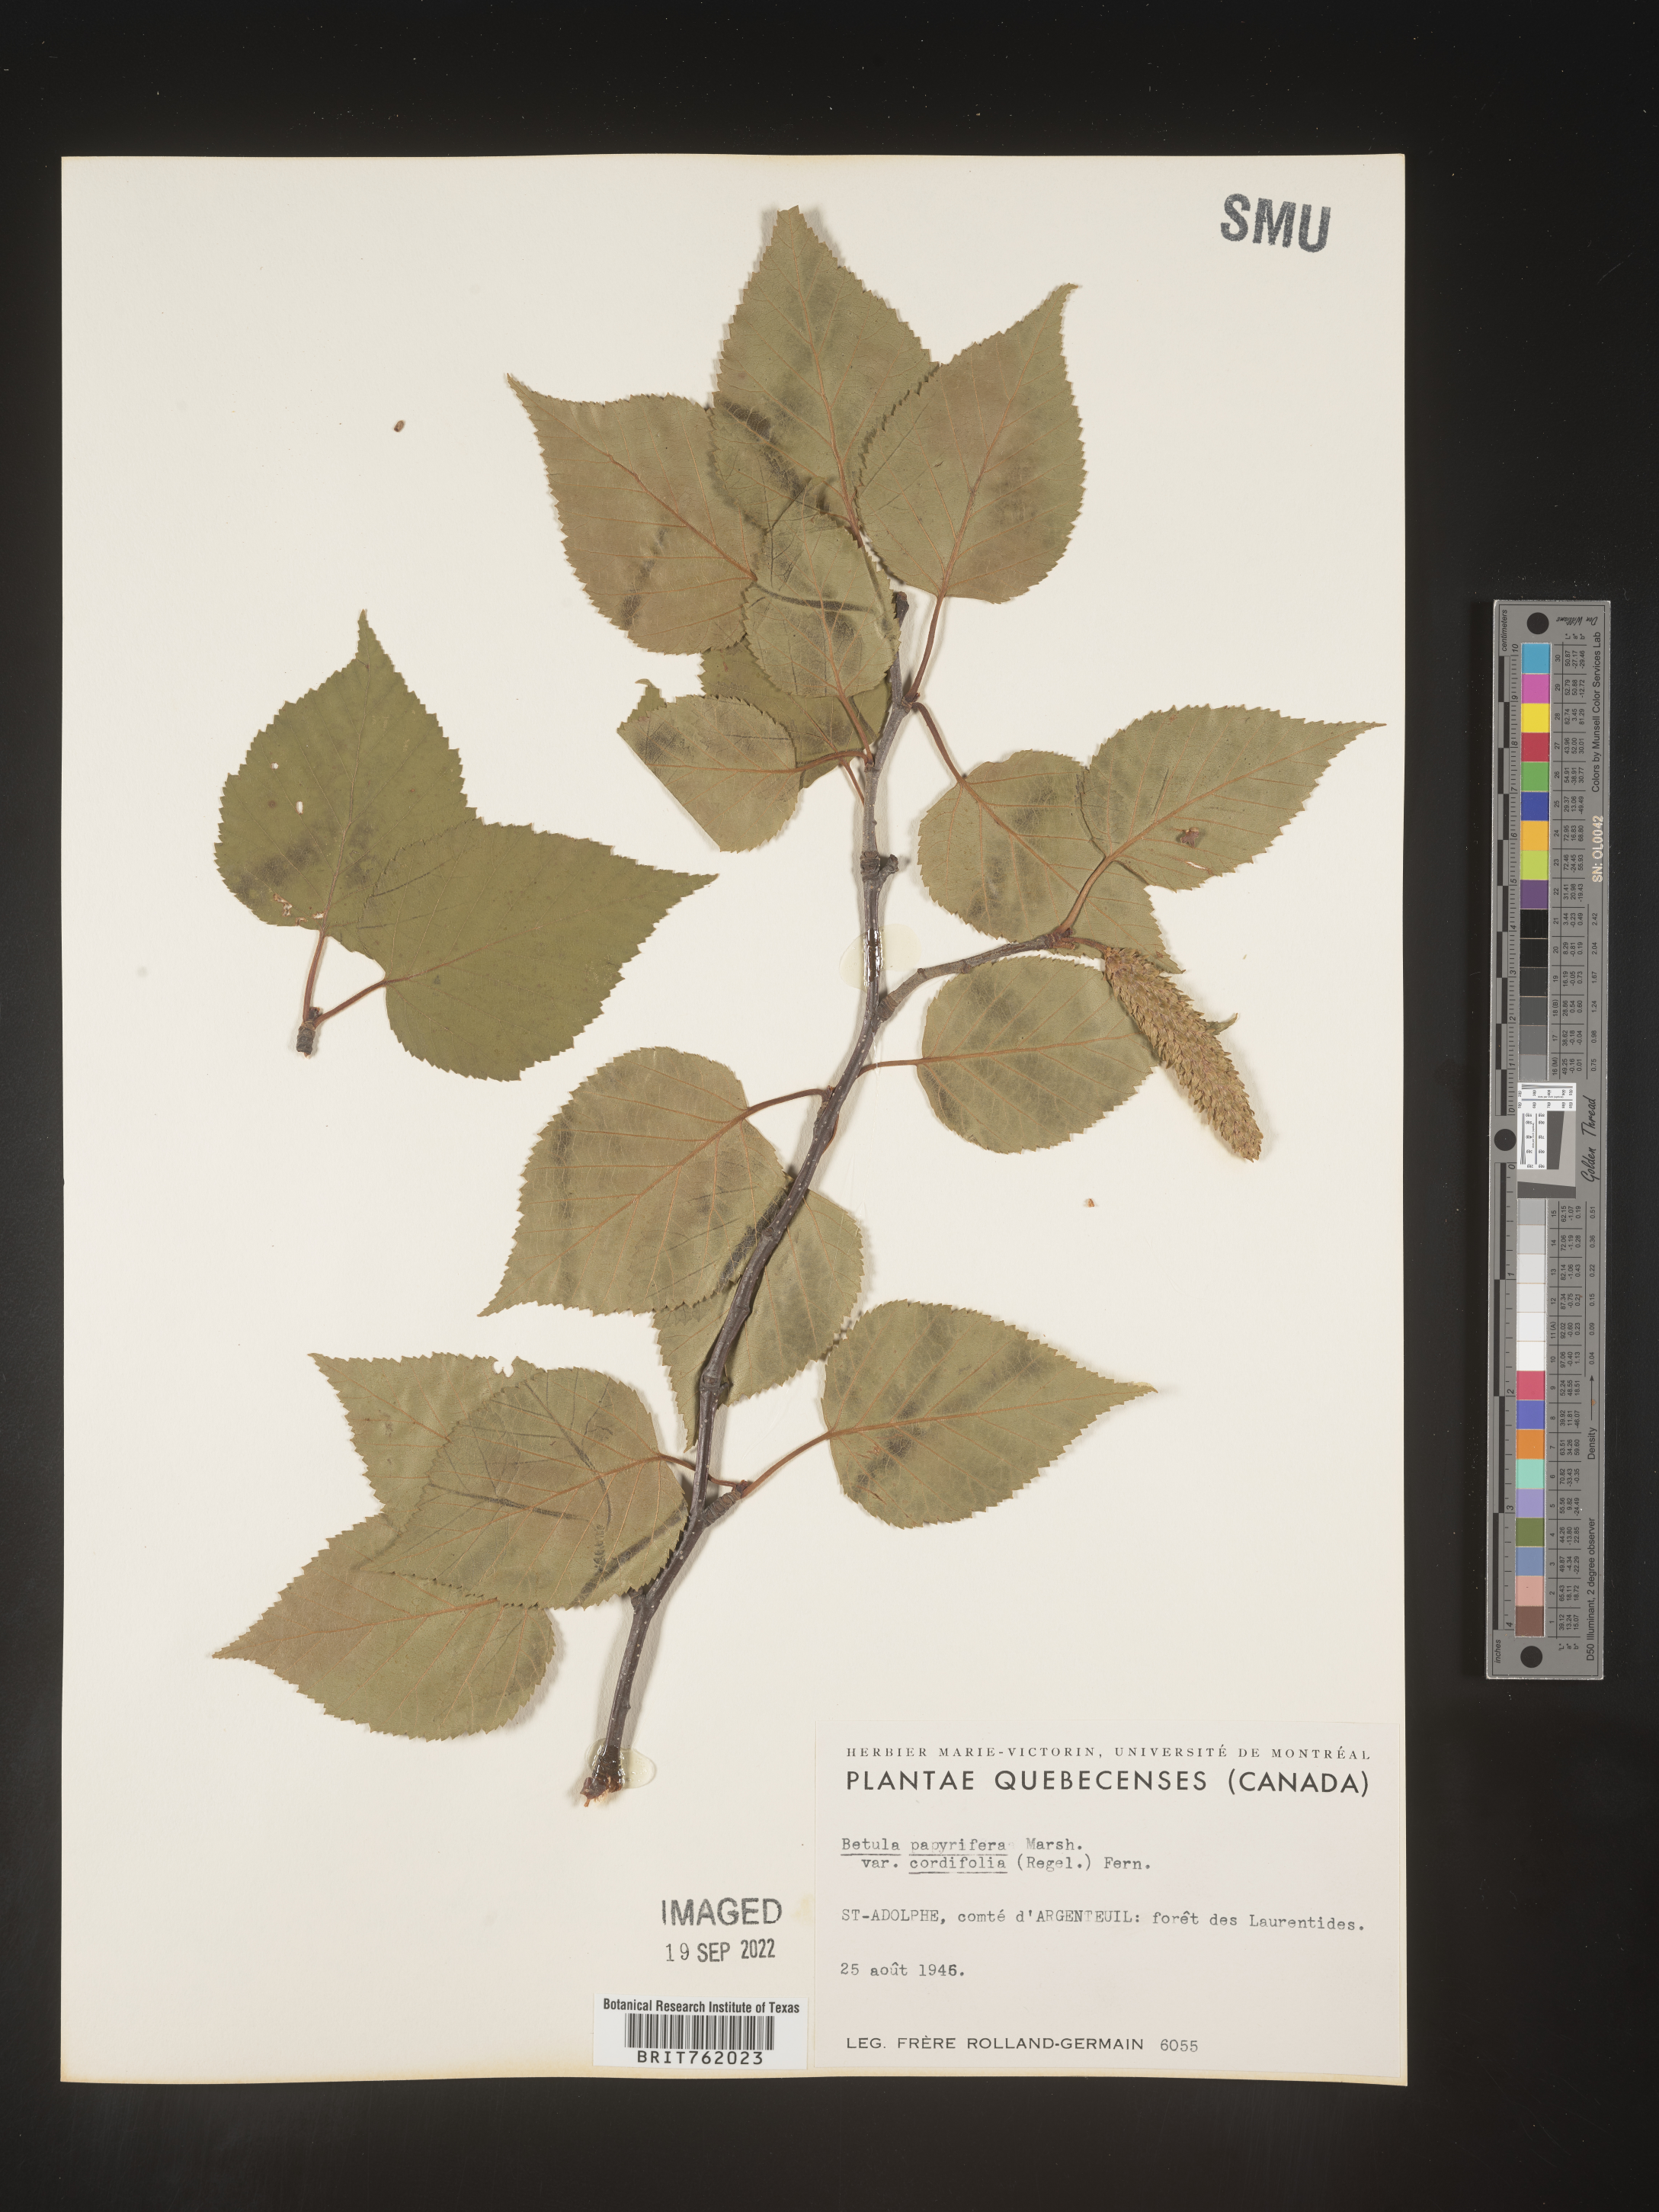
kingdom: Plantae
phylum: Tracheophyta
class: Magnoliopsida
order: Fagales
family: Betulaceae
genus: Betula
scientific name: Betula papyrifera
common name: Paper birch
